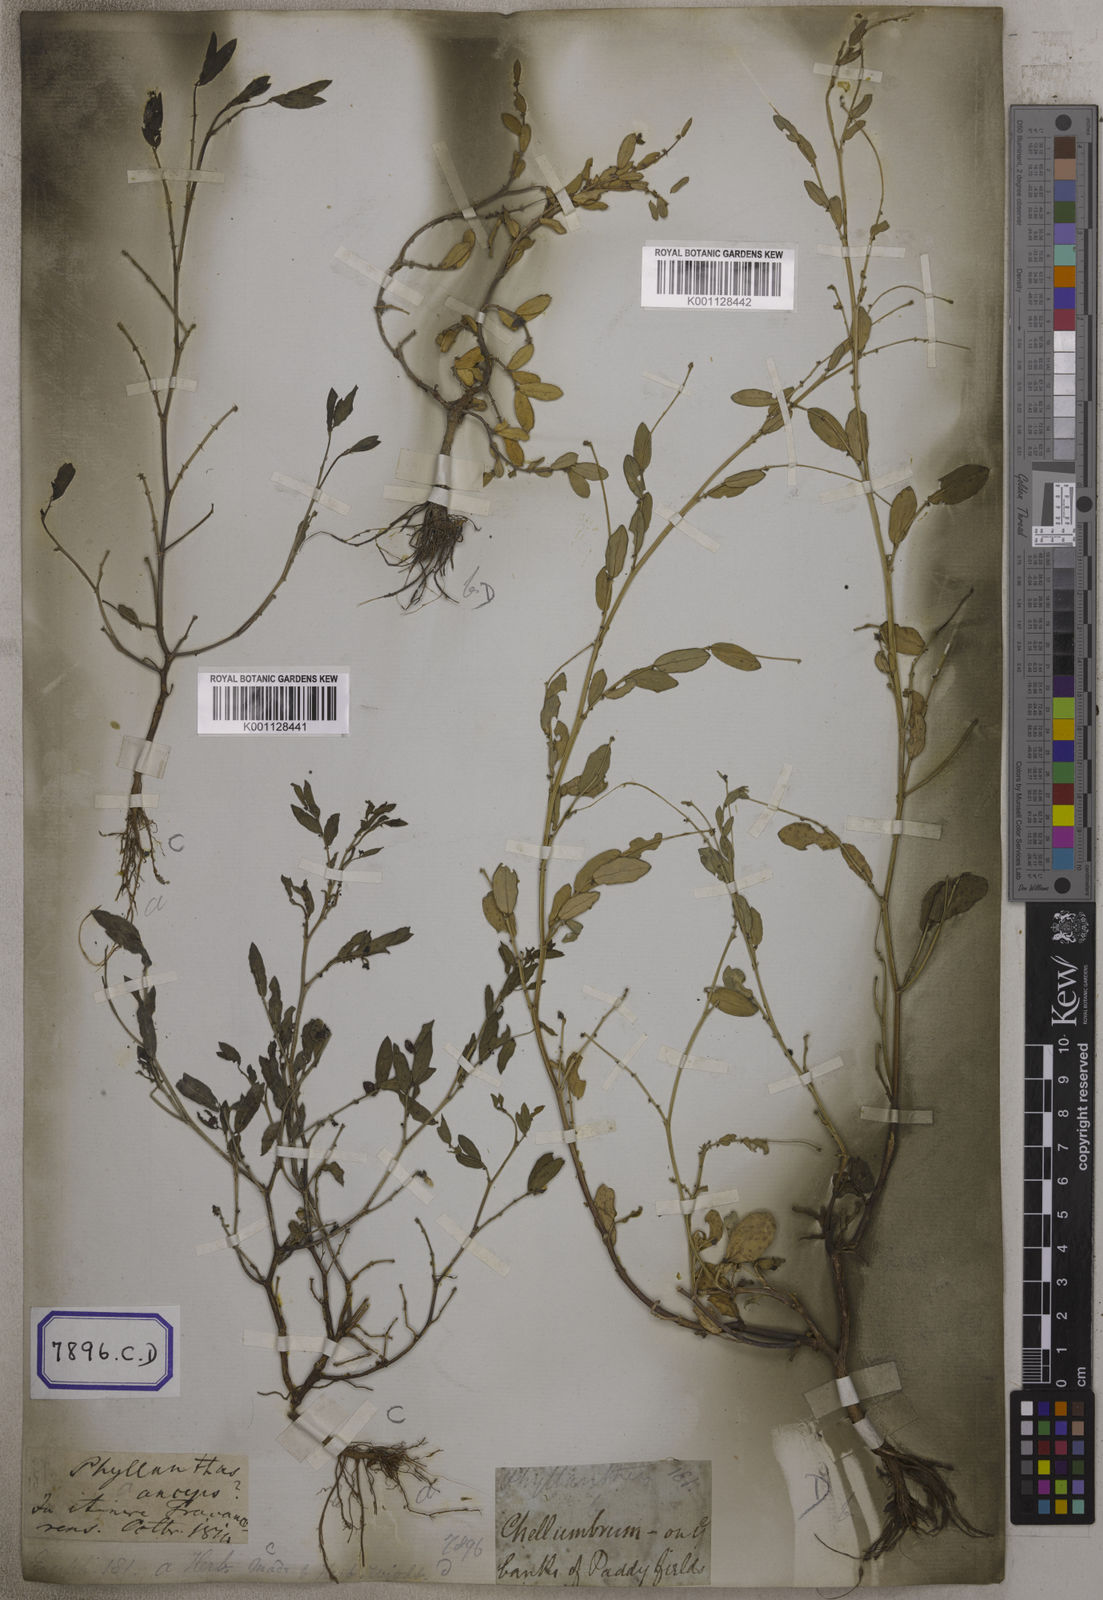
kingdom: Plantae
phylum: Tracheophyta
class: Magnoliopsida
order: Malpighiales
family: Euphorbiaceae
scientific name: Euphorbiaceae
